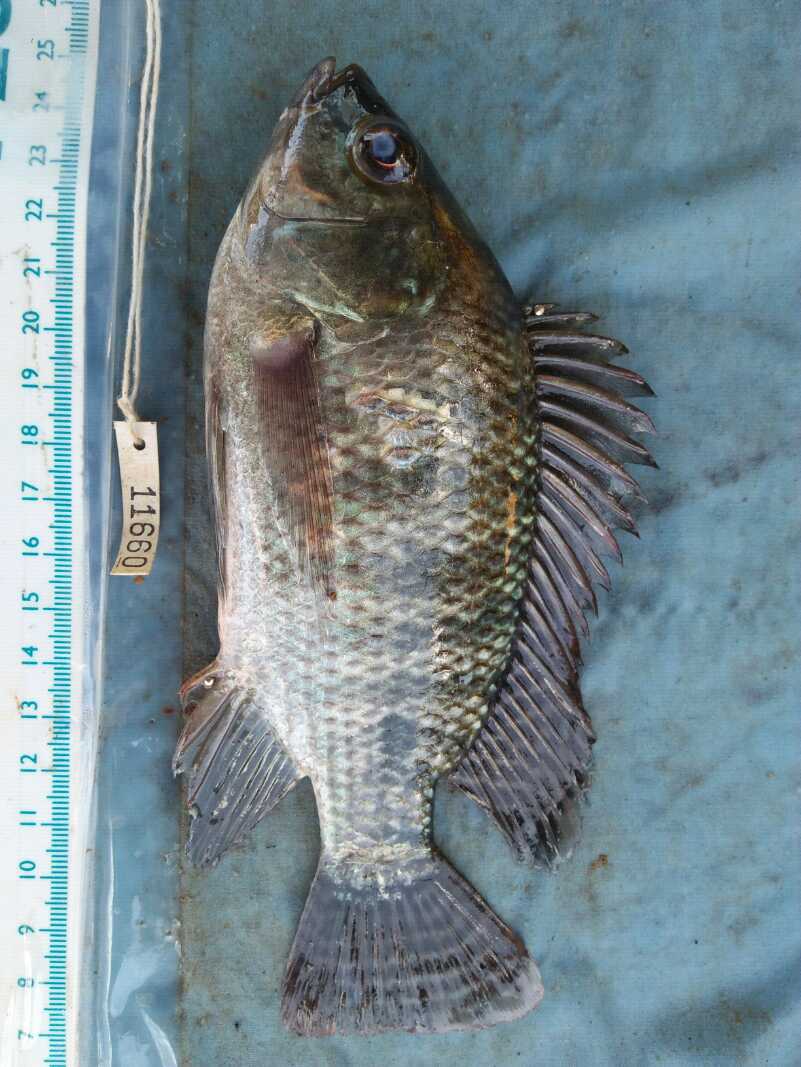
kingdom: Animalia
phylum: Chordata
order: Perciformes
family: Cichlidae
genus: Oreochromis
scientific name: Oreochromis niloticus
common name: Nile tilapia
